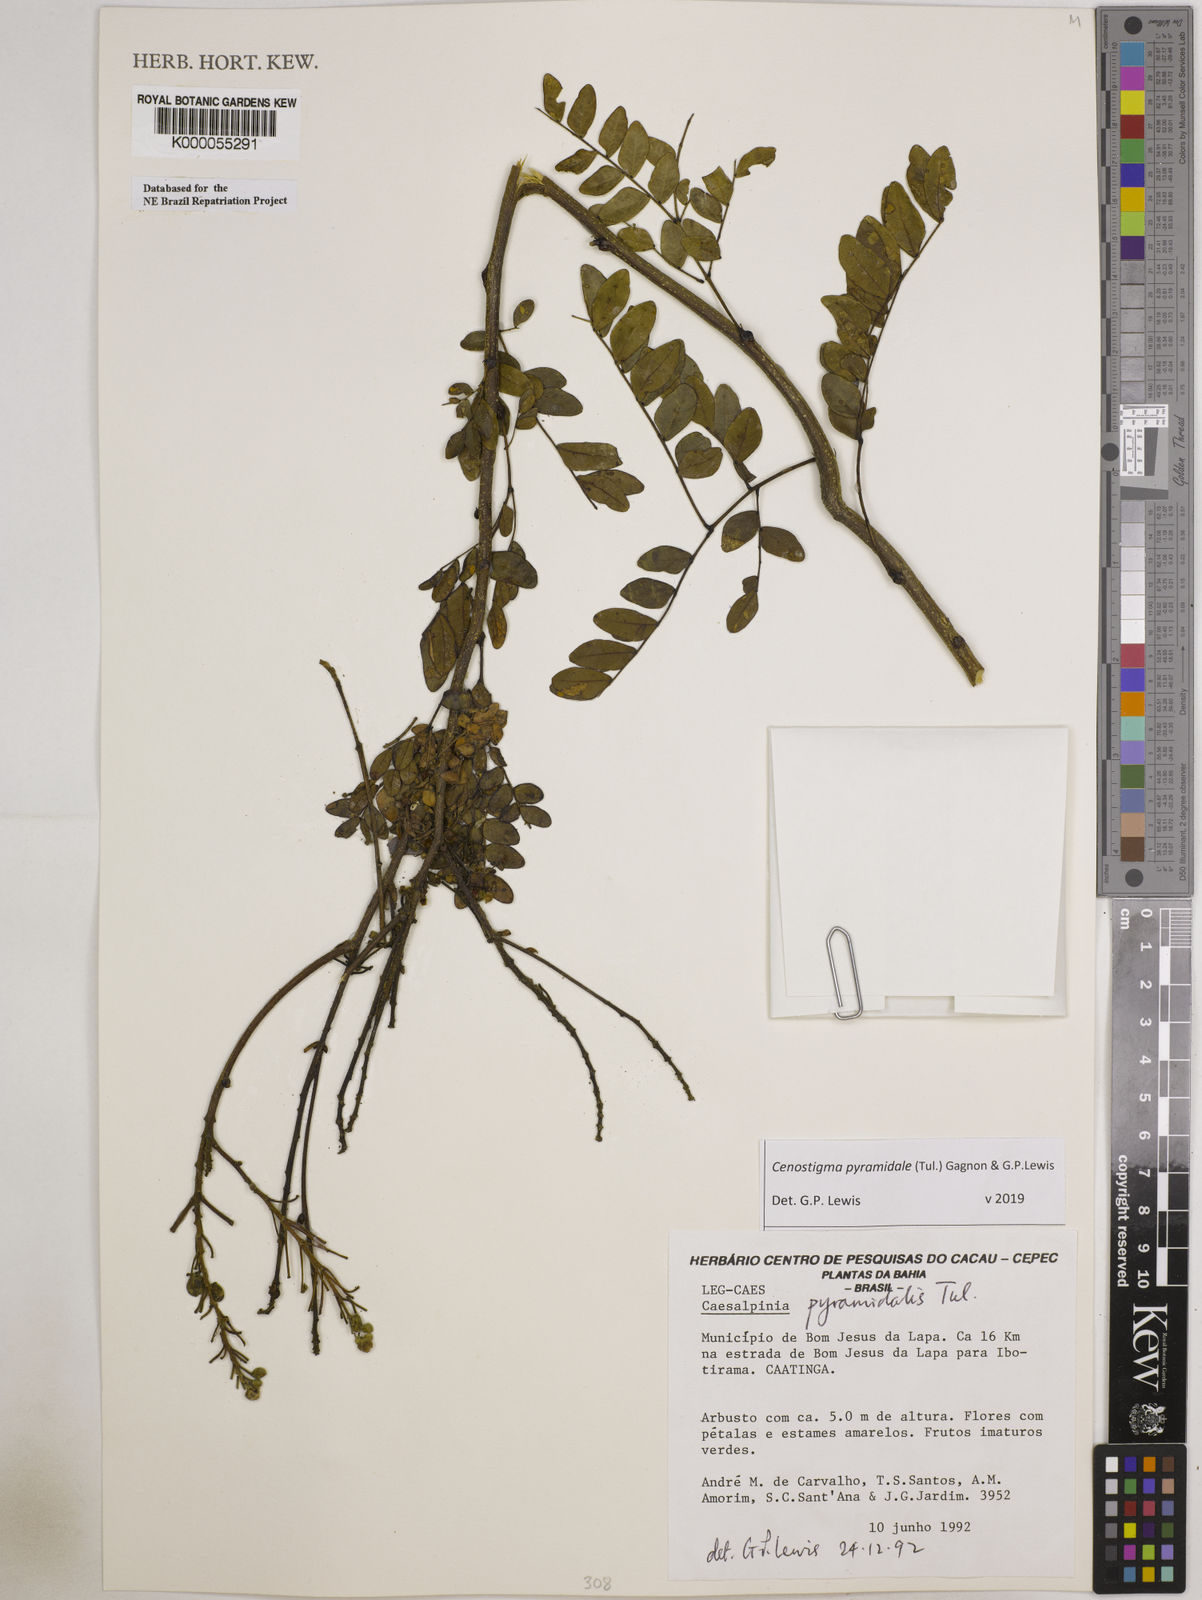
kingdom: Plantae
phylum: Tracheophyta
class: Magnoliopsida
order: Fabales
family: Fabaceae
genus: Cenostigma
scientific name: Cenostigma pyramidale
